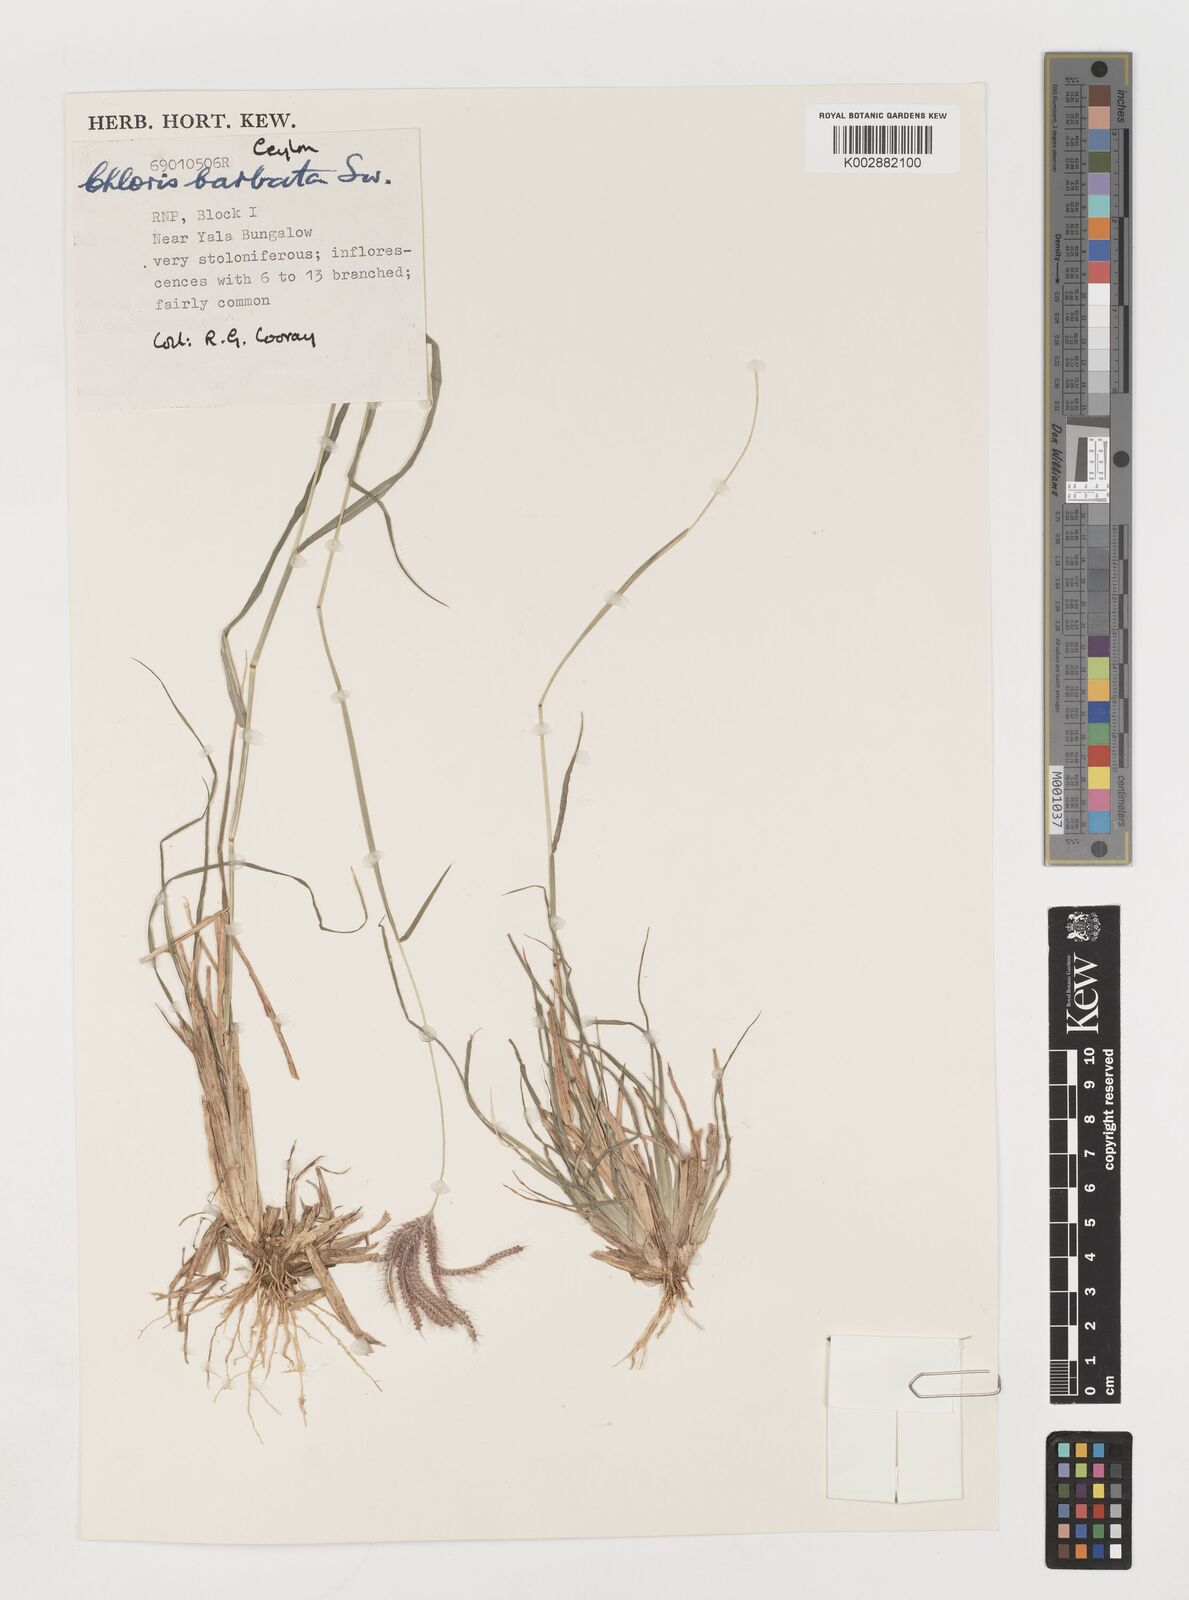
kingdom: Plantae
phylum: Tracheophyta
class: Liliopsida
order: Poales
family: Poaceae
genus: Chloris
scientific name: Chloris barbata
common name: Swollen fingergrass
